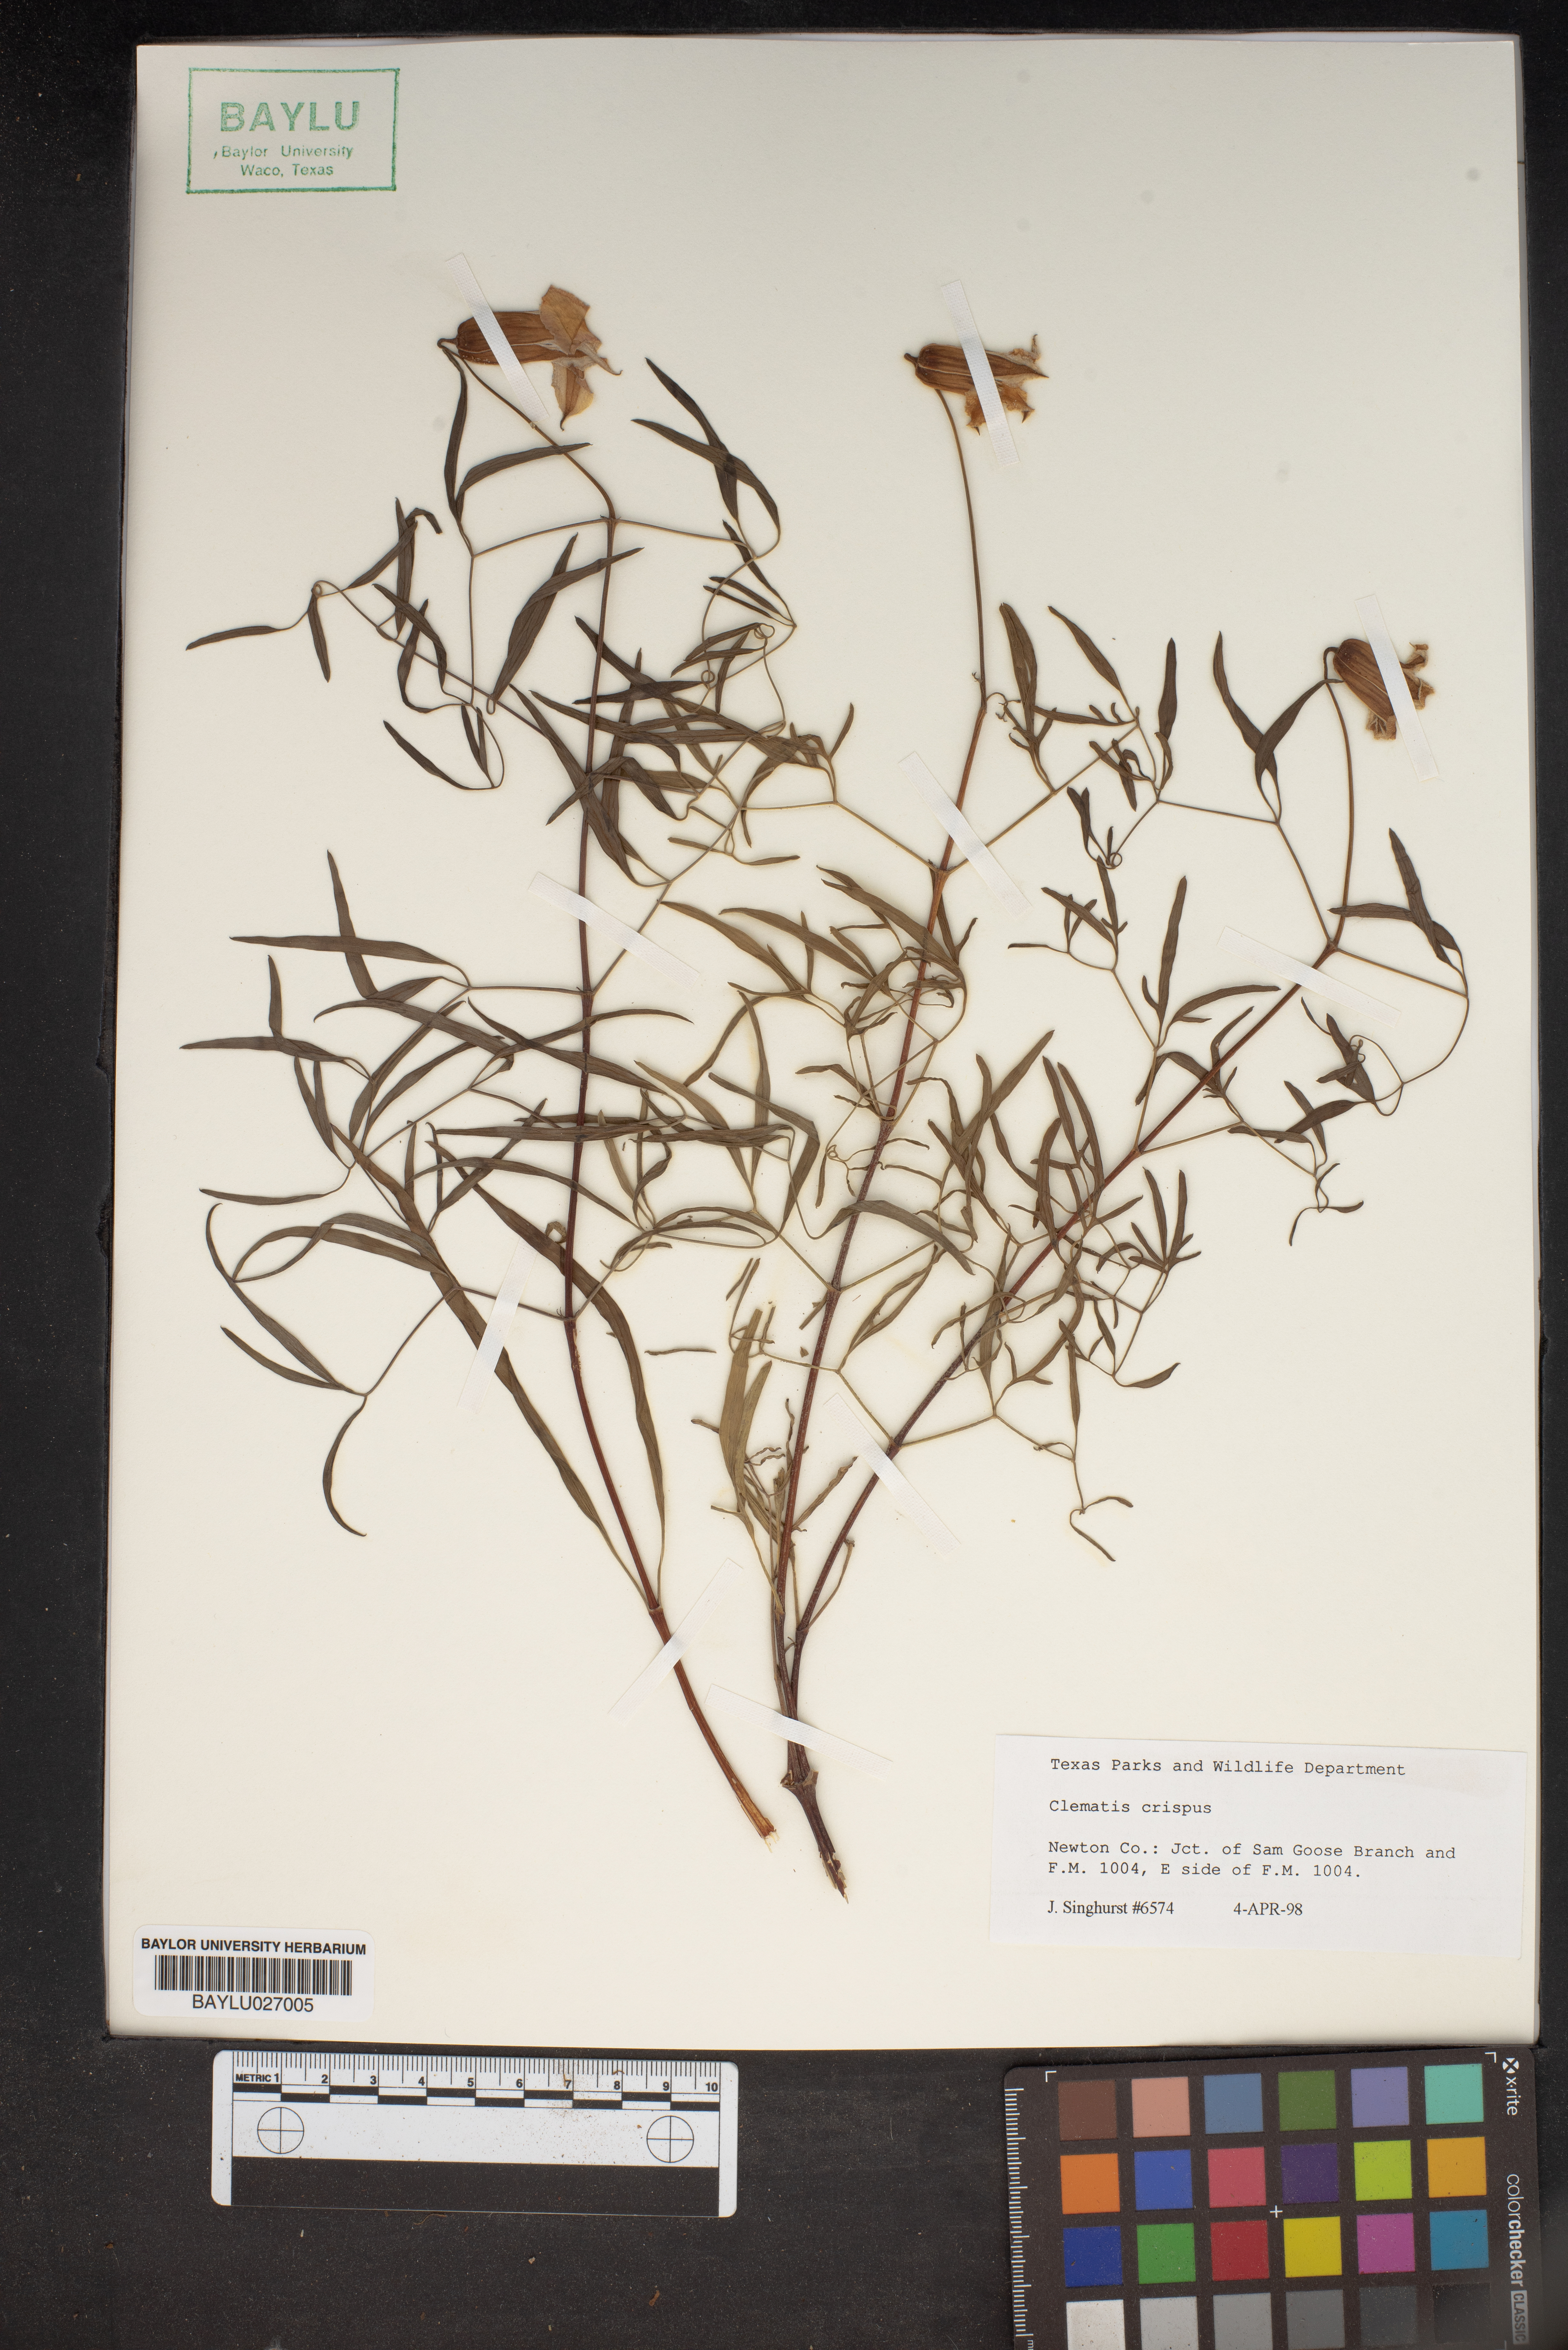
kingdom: Plantae
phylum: Tracheophyta
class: Magnoliopsida
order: Ranunculales
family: Ranunculaceae
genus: Clematis
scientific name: Clematis crispa
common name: Curly clematis
